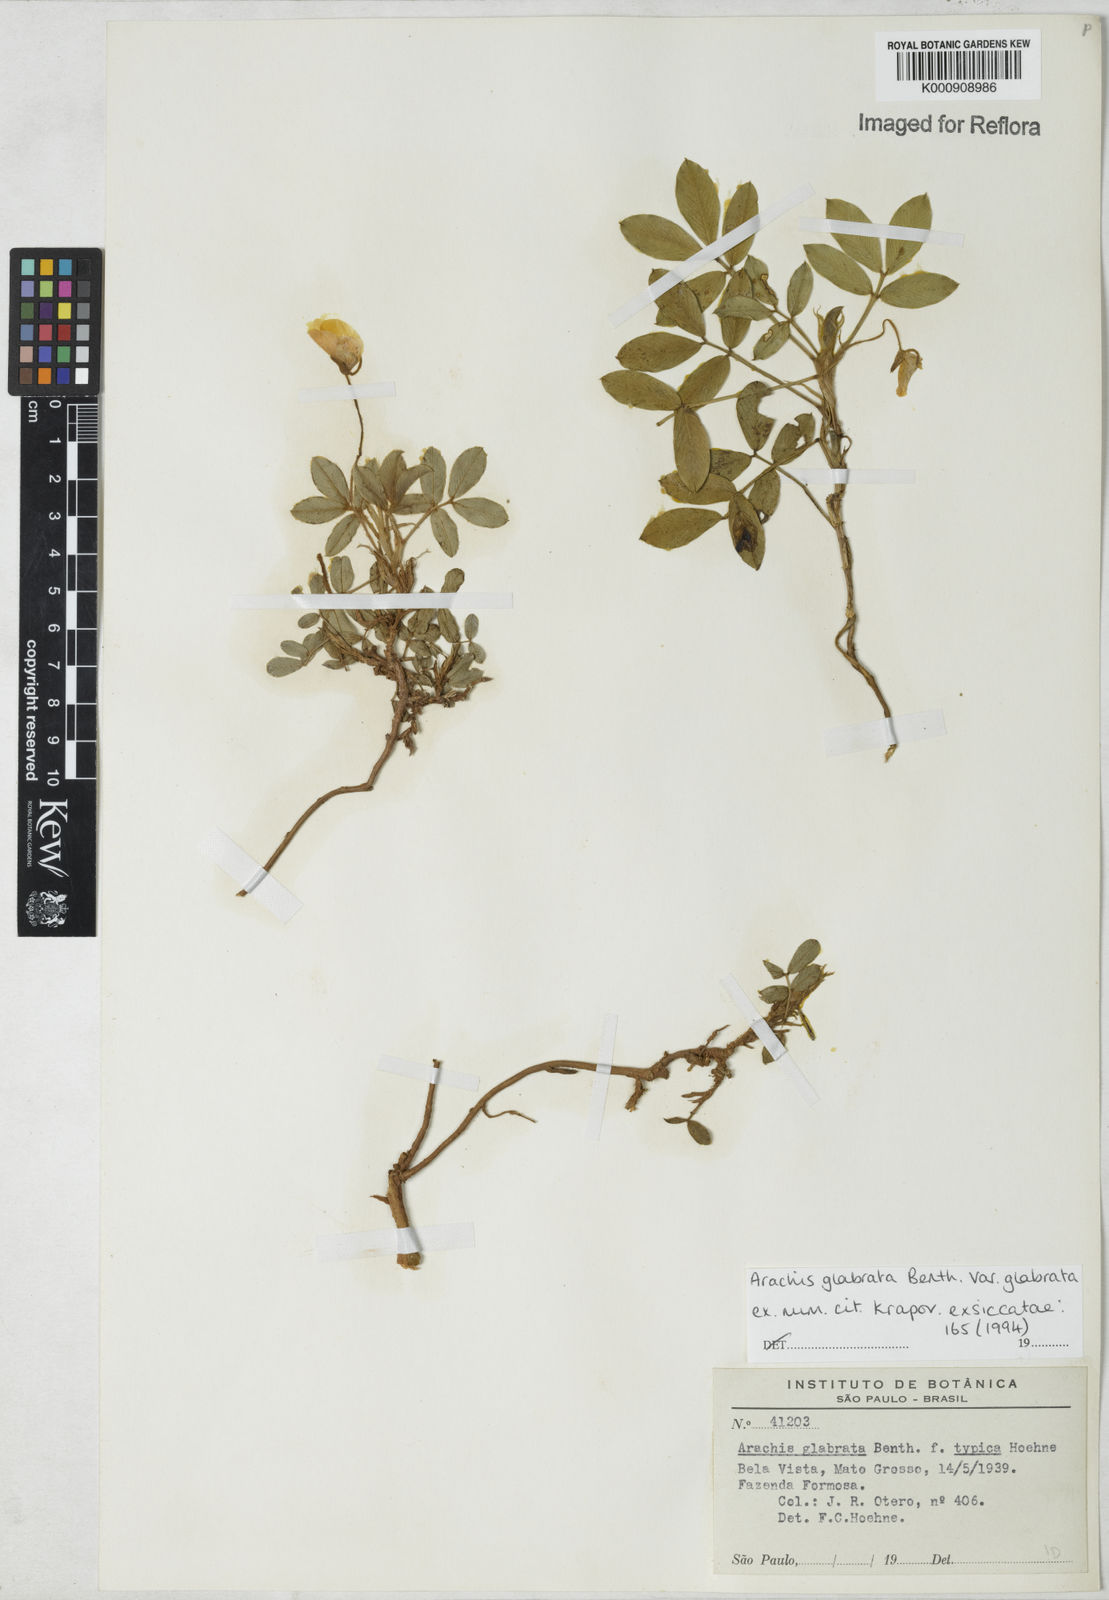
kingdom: Plantae
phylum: Tracheophyta
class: Magnoliopsida
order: Fabales
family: Fabaceae
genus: Arachis
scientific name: Arachis glabrata
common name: Rhizoma peanut
